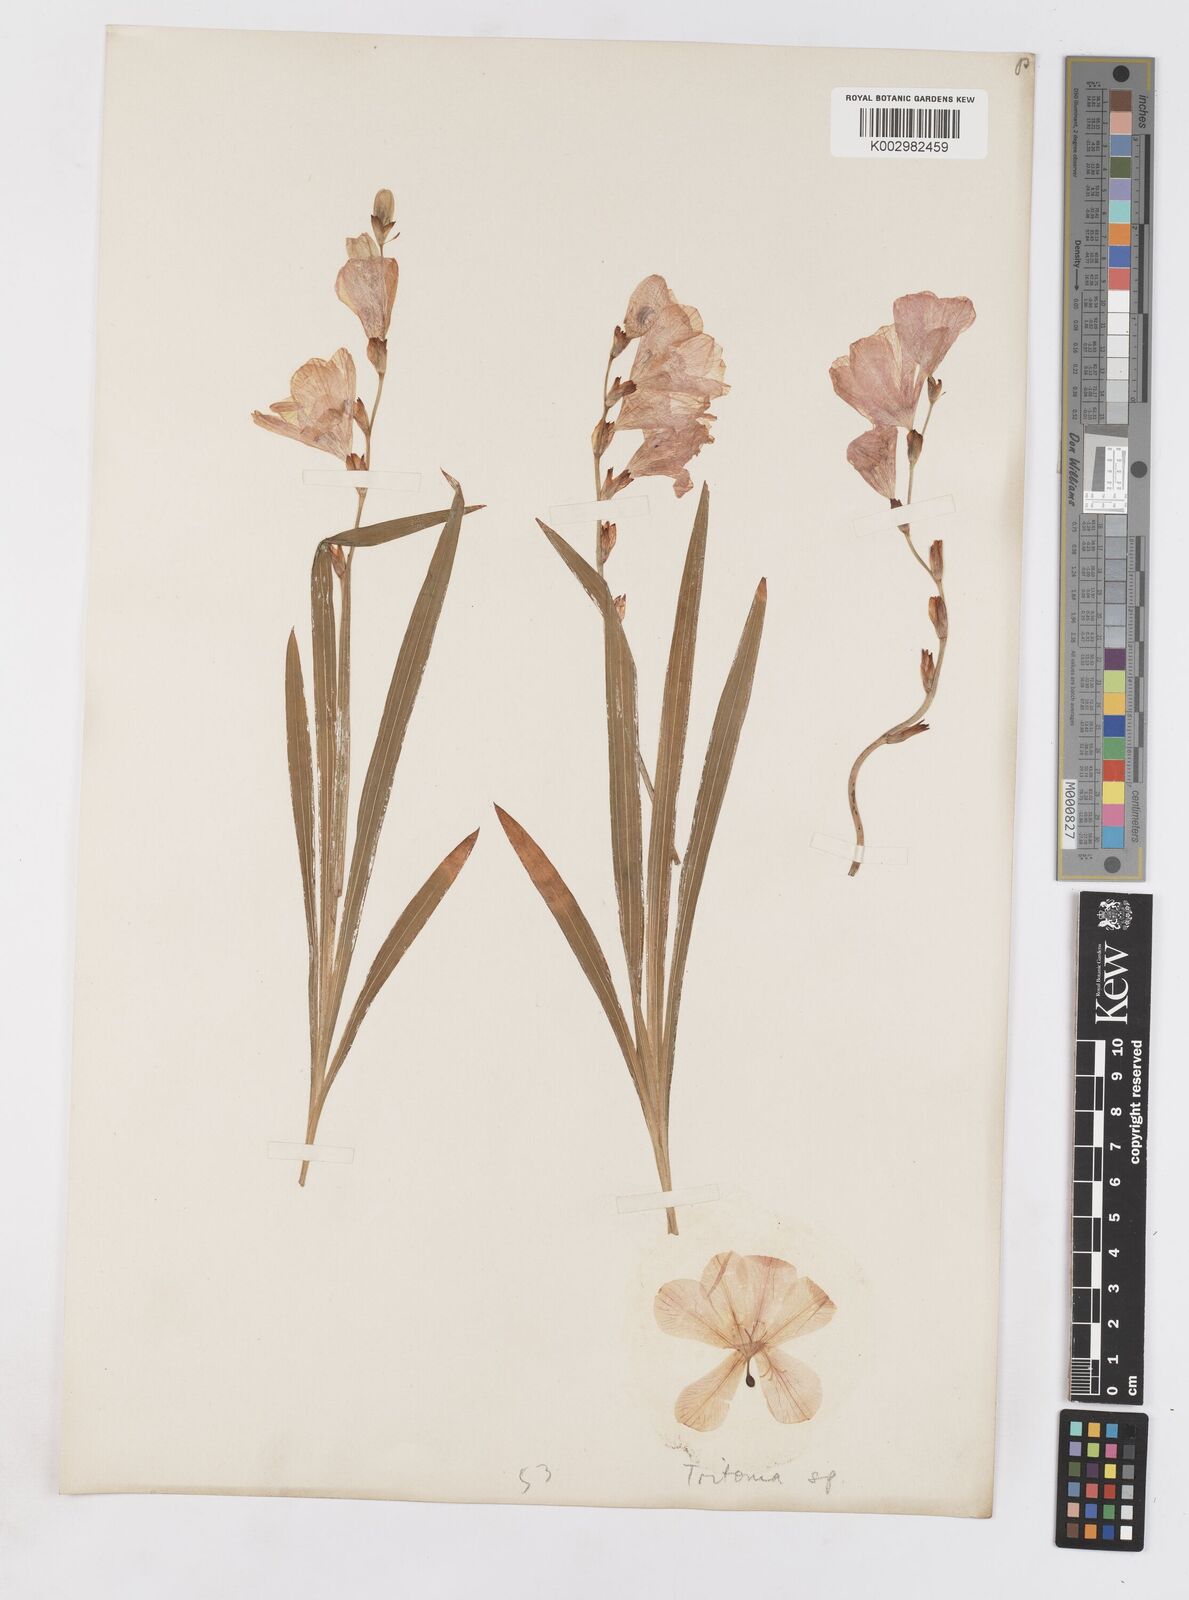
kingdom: Plantae
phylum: Tracheophyta
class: Liliopsida
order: Asparagales
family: Iridaceae
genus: Tritonia
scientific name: Tritonia
